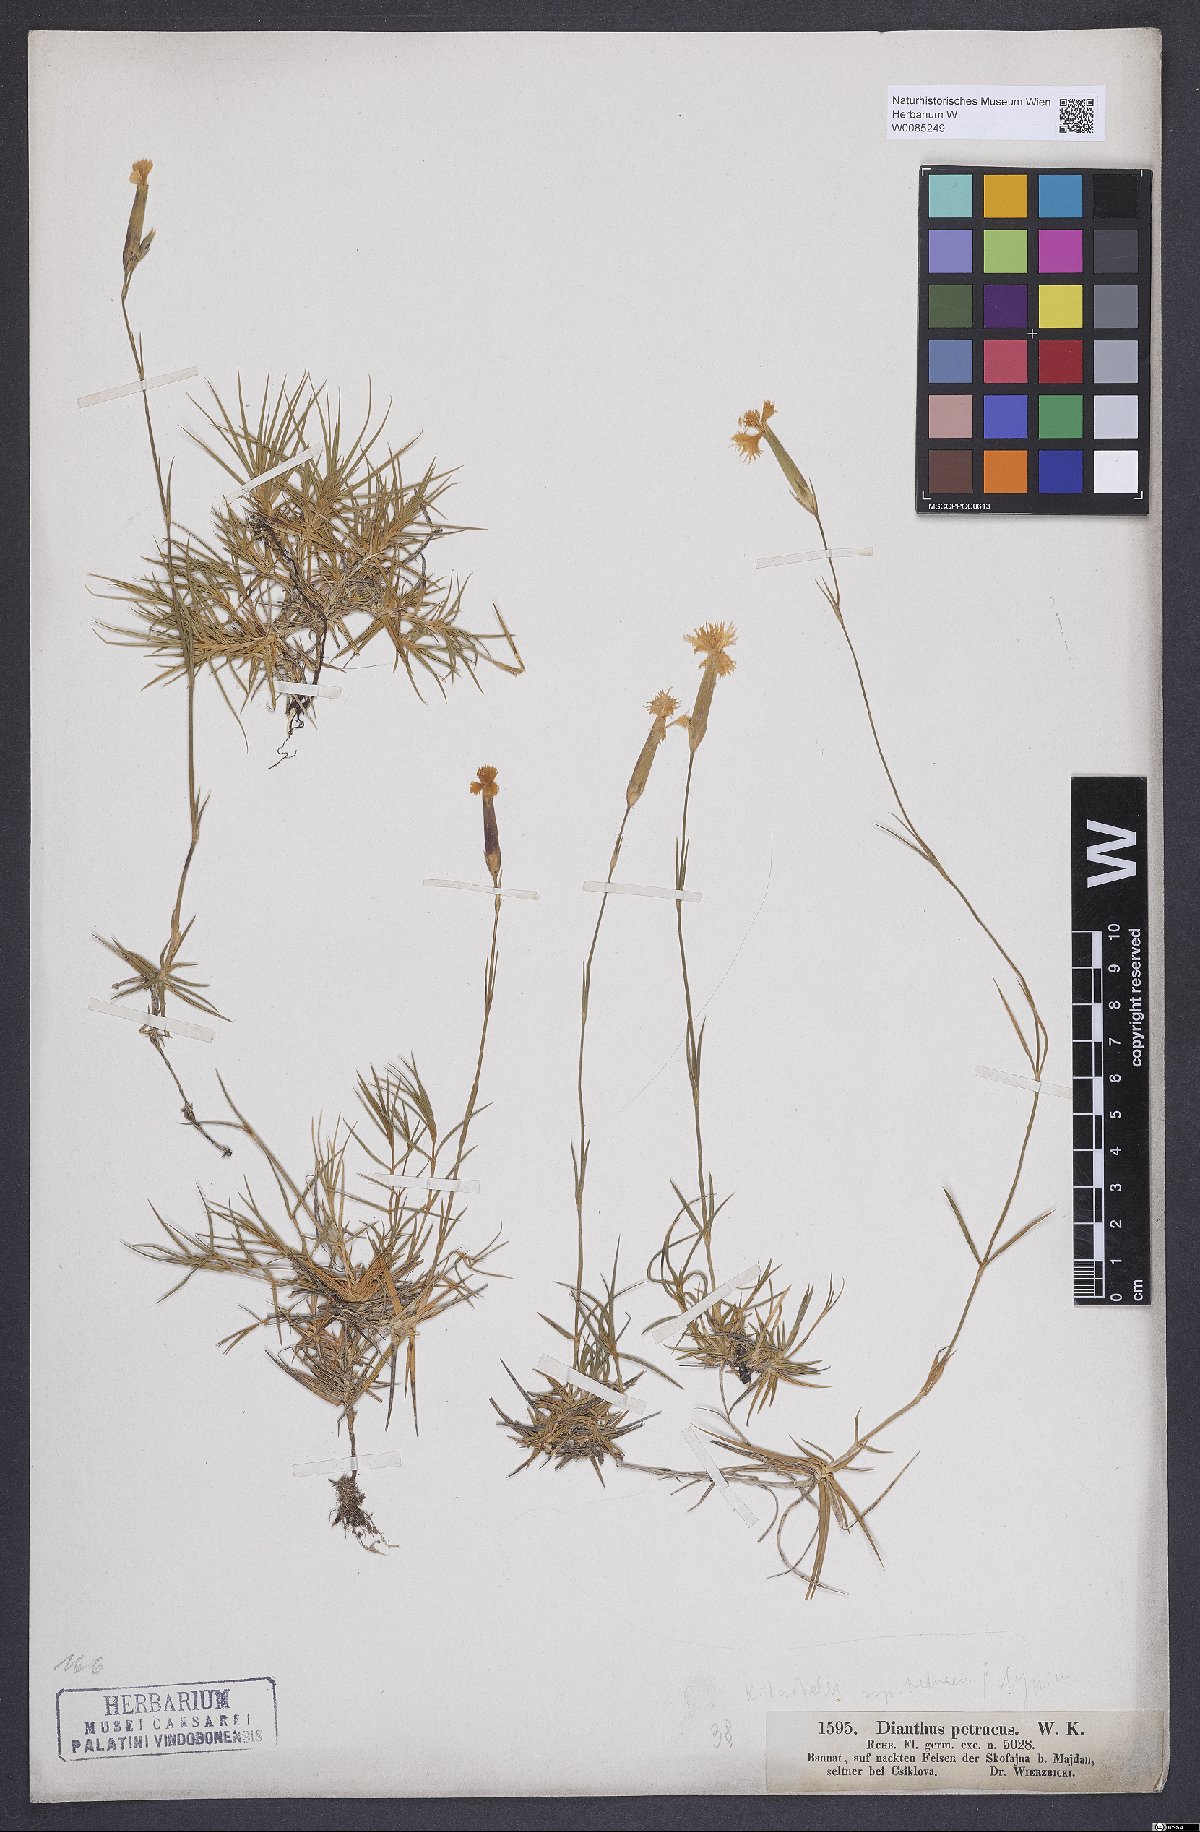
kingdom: Plantae
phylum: Tracheophyta
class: Magnoliopsida
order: Caryophyllales
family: Caryophyllaceae
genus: Dianthus
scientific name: Dianthus petraeus
